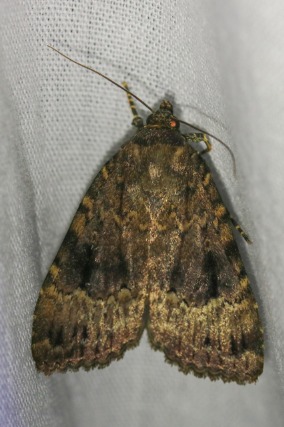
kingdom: Animalia
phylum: Arthropoda
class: Insecta
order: Lepidoptera
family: Noctuidae
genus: Amphipyra
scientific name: Amphipyra pyramidea
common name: Pyramideugle
